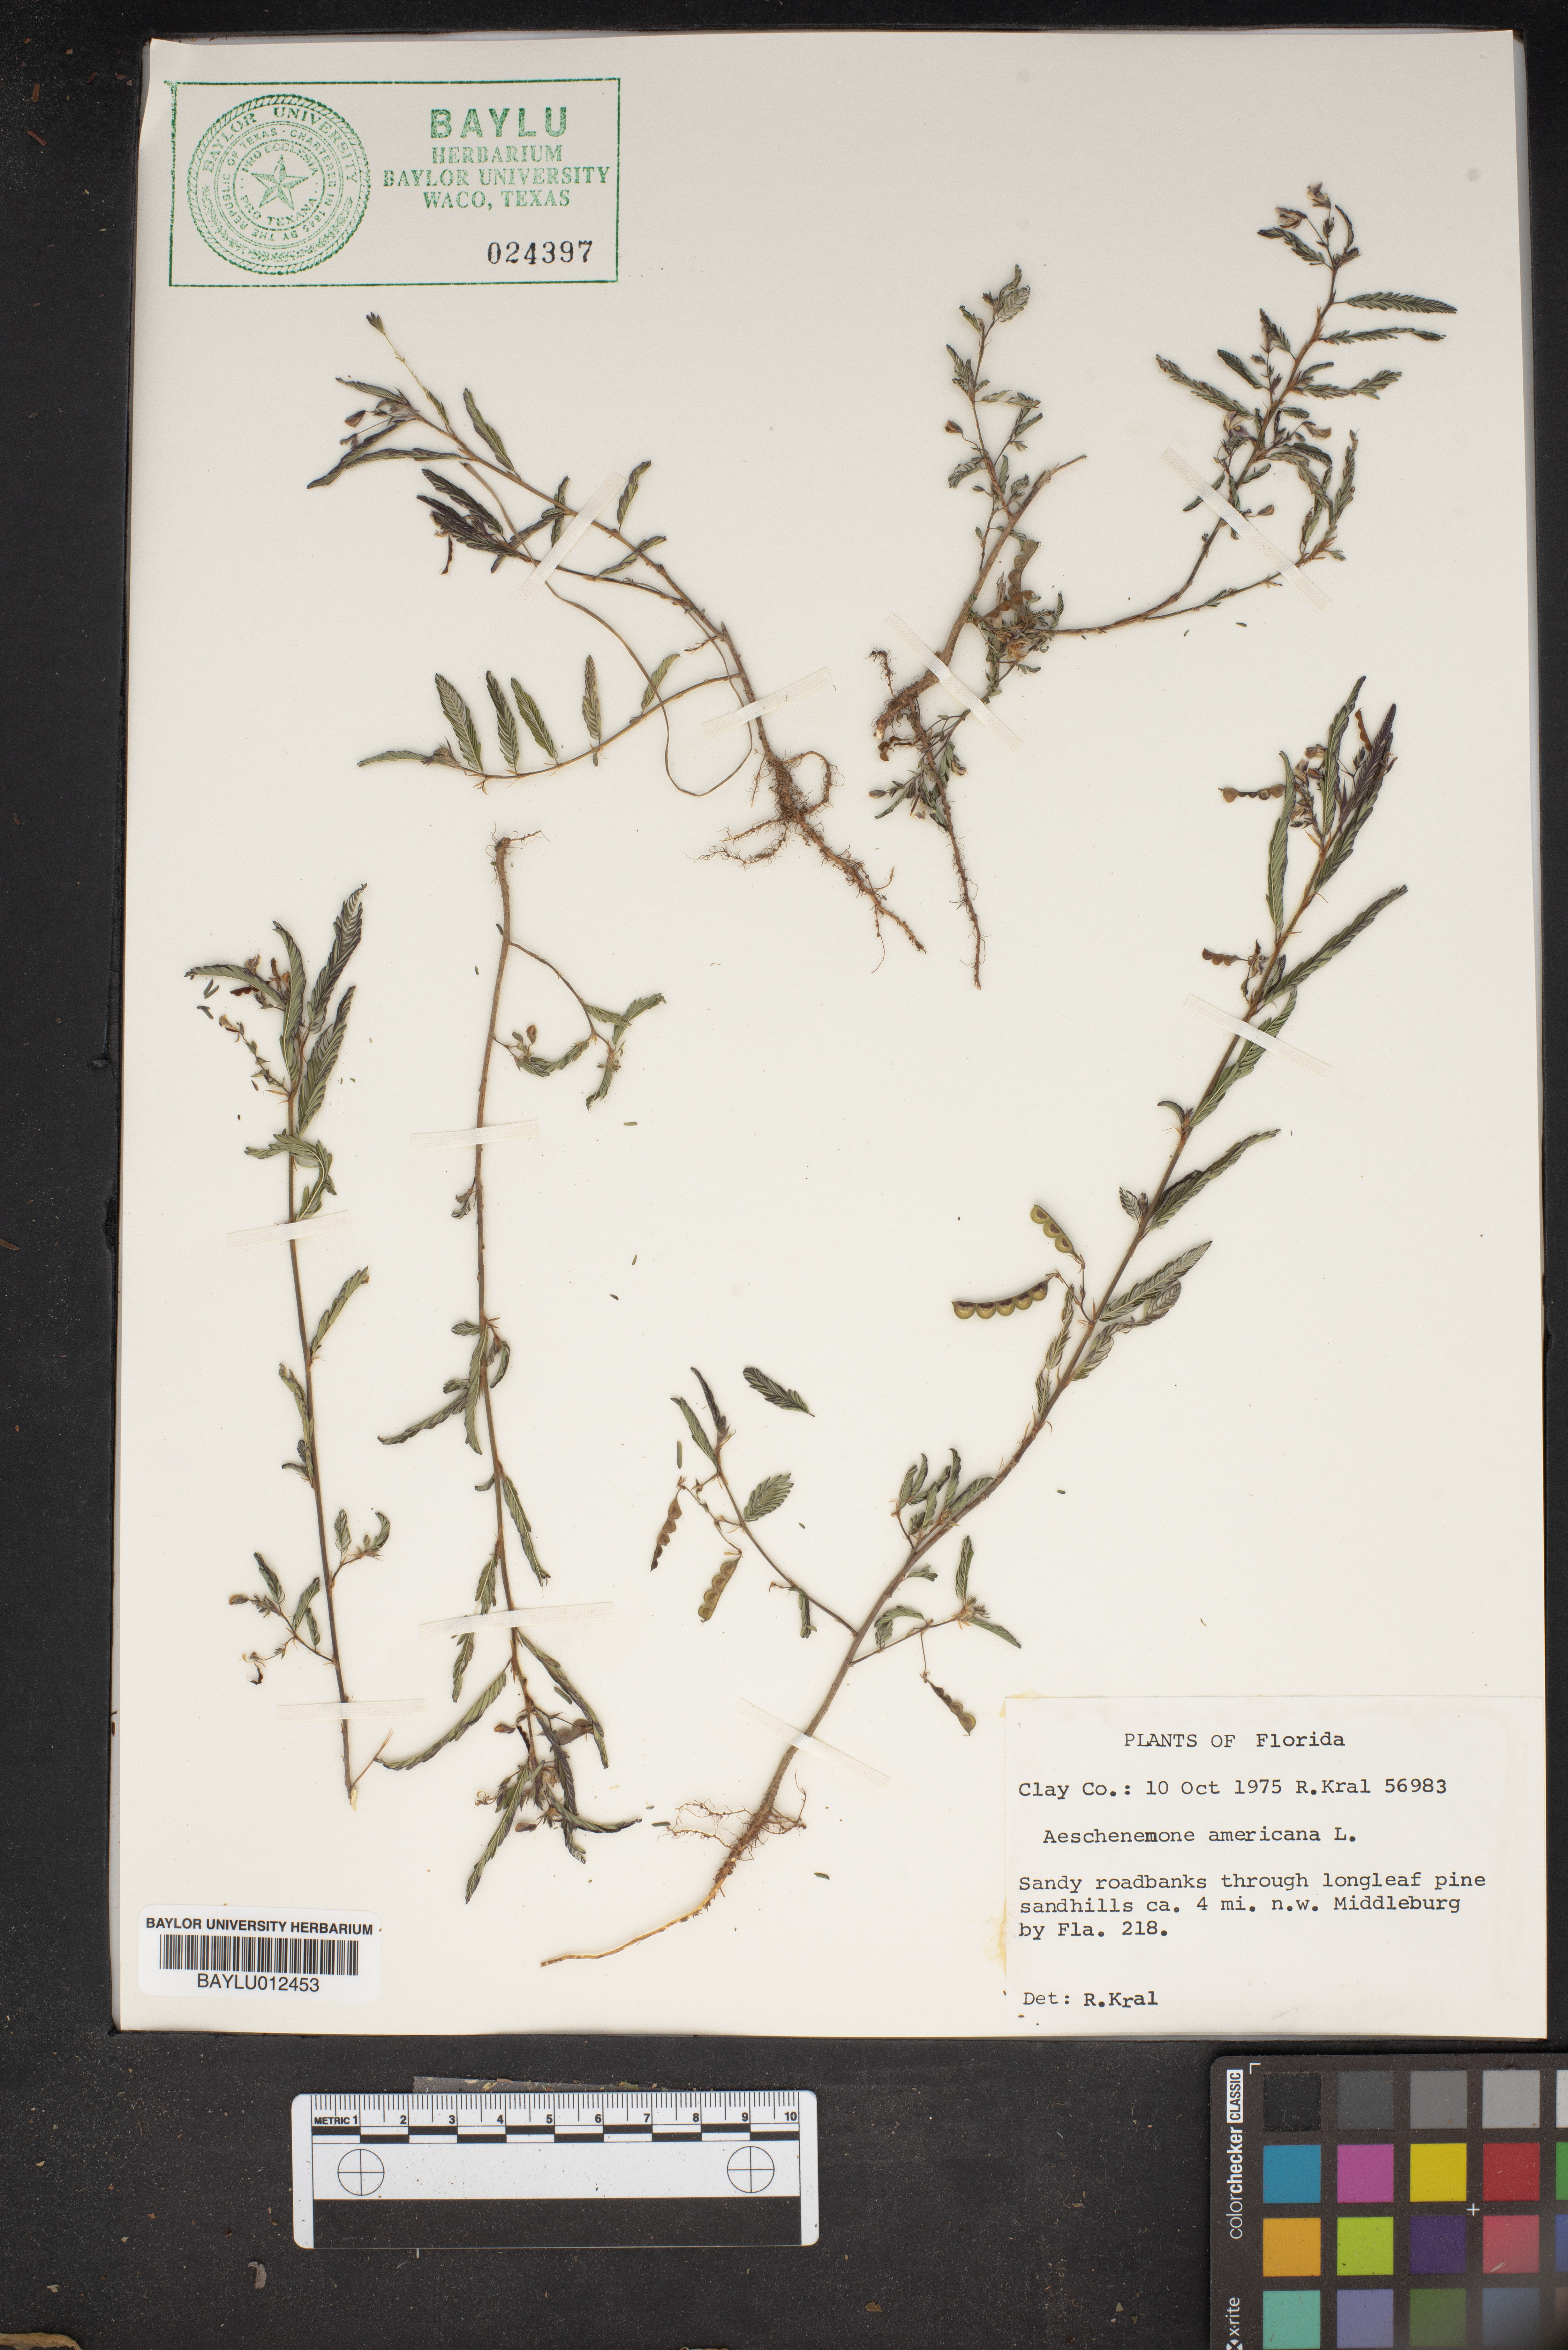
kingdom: Plantae
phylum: Tracheophyta
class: Magnoliopsida
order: Fabales
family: Fabaceae
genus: Aeschynomene
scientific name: Aeschynomene americana
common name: Joint-vetch
